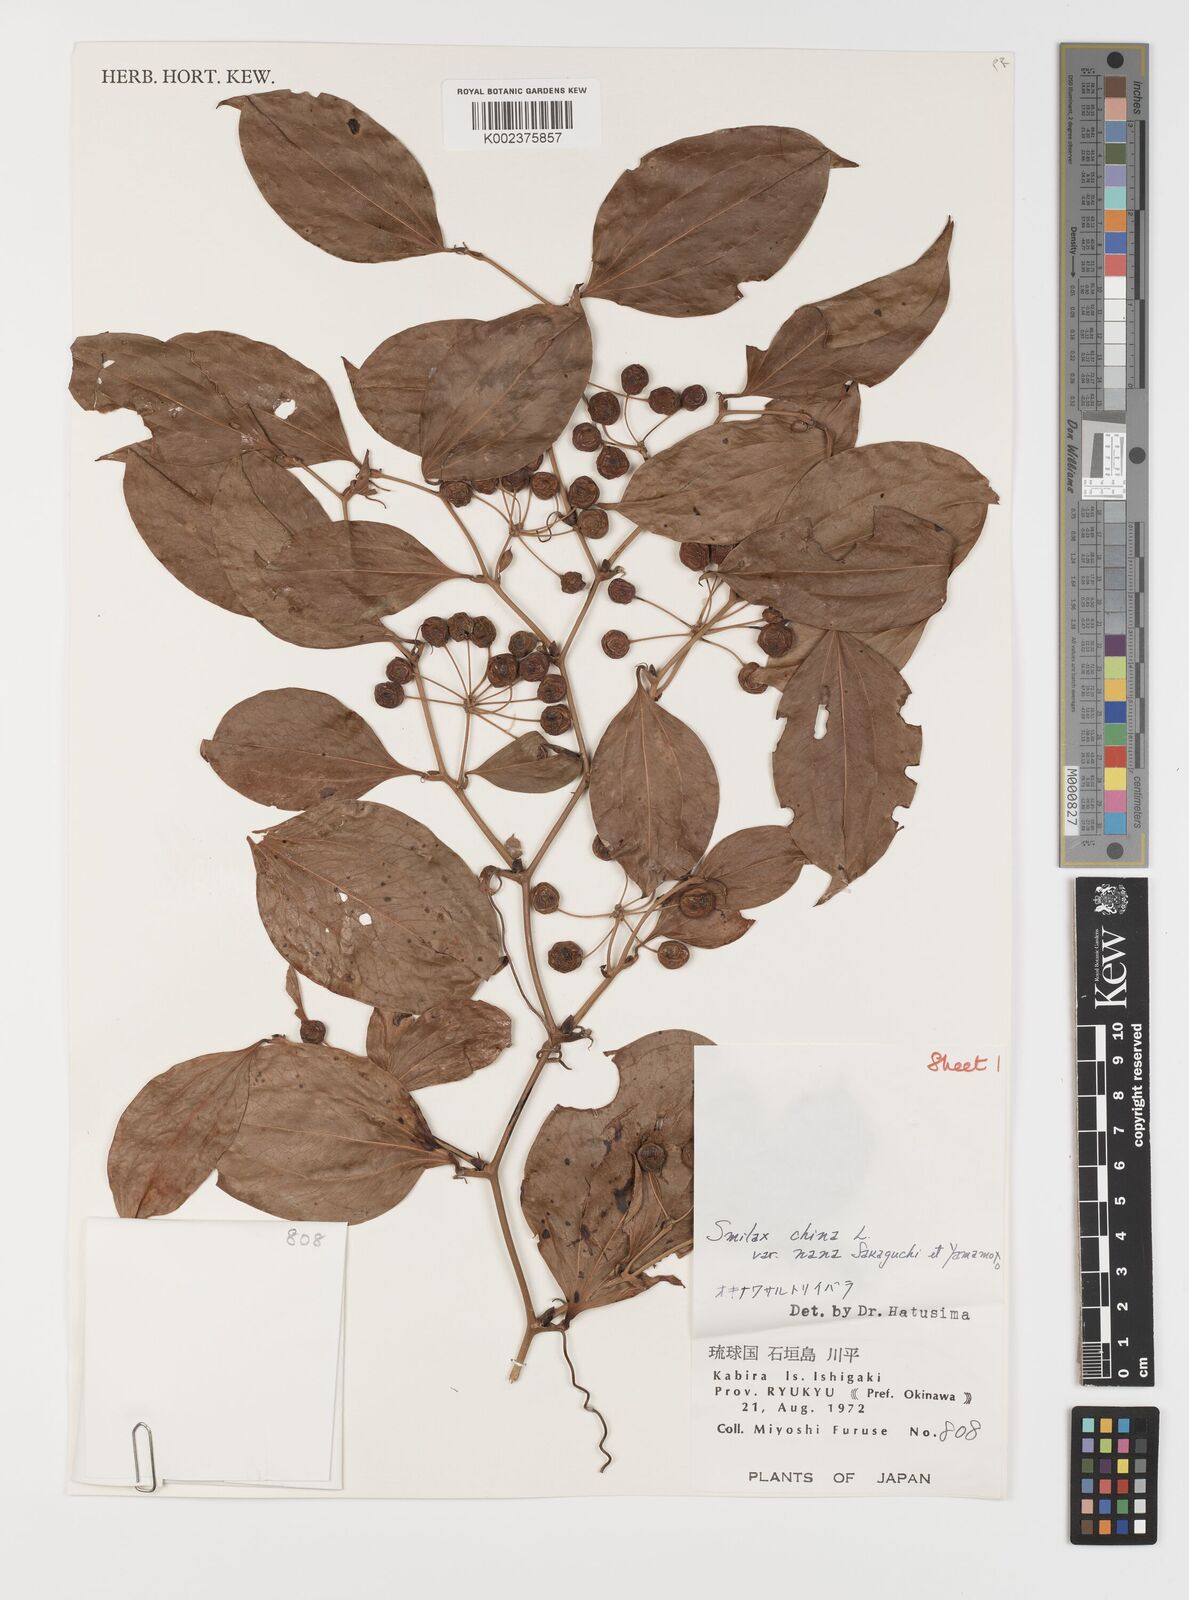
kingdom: Plantae
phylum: Tracheophyta
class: Liliopsida
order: Liliales
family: Smilacaceae
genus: Smilax
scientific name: Smilax china
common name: Chinaroot
